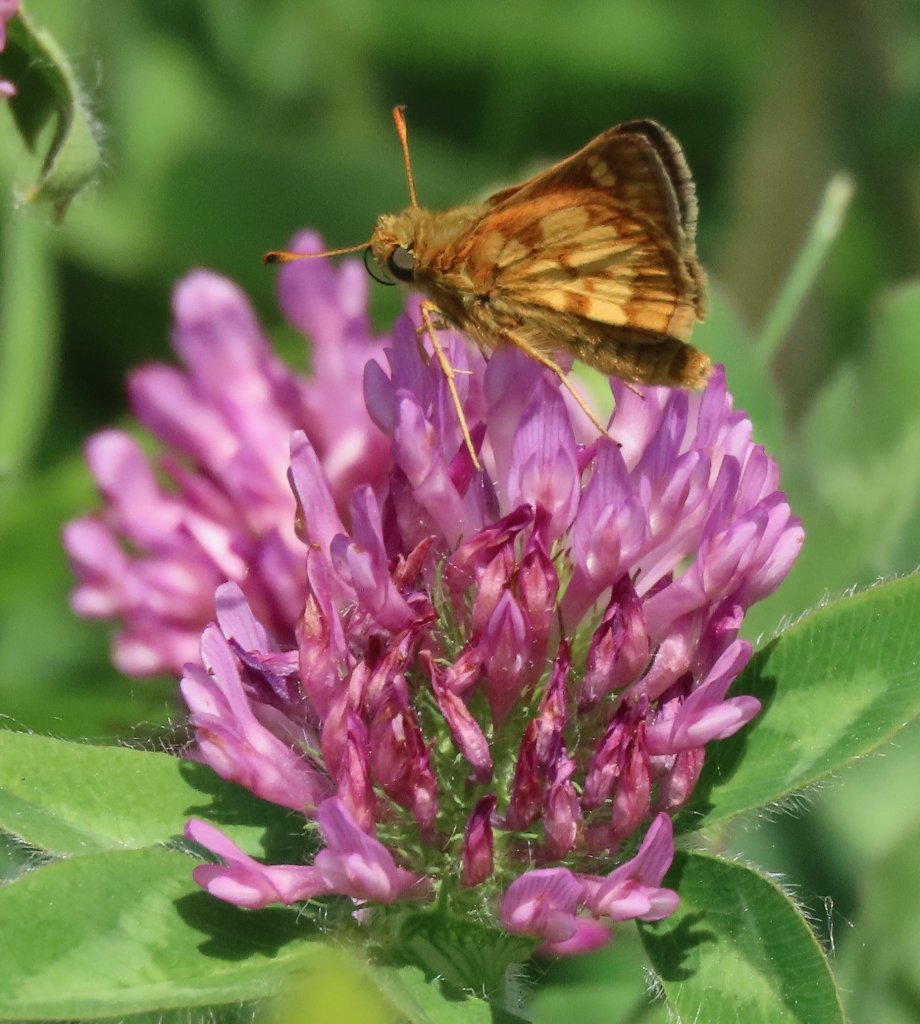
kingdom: Animalia
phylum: Arthropoda
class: Insecta
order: Lepidoptera
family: Hesperiidae
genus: Polites
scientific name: Polites coras
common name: Peck's Skipper
